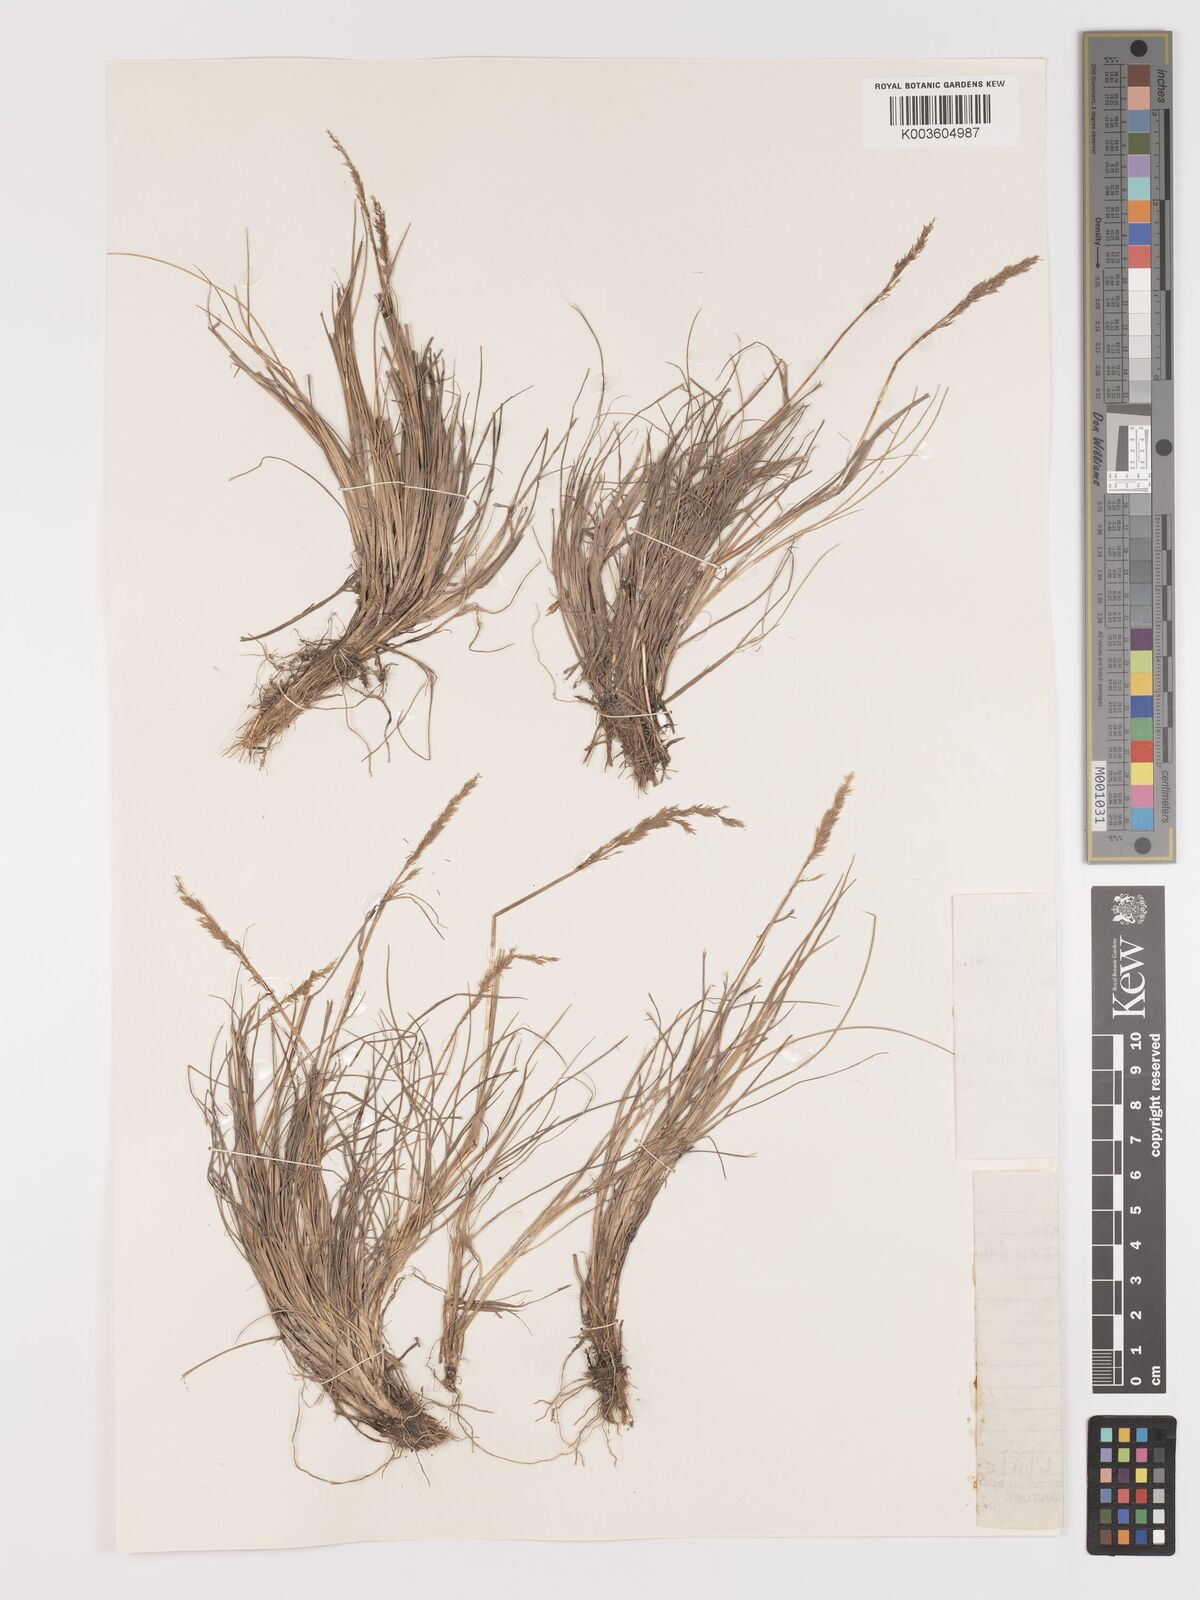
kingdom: Plantae
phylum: Tracheophyta
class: Liliopsida
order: Poales
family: Poaceae
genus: Agrostis
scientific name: Agrostis tolucensis
